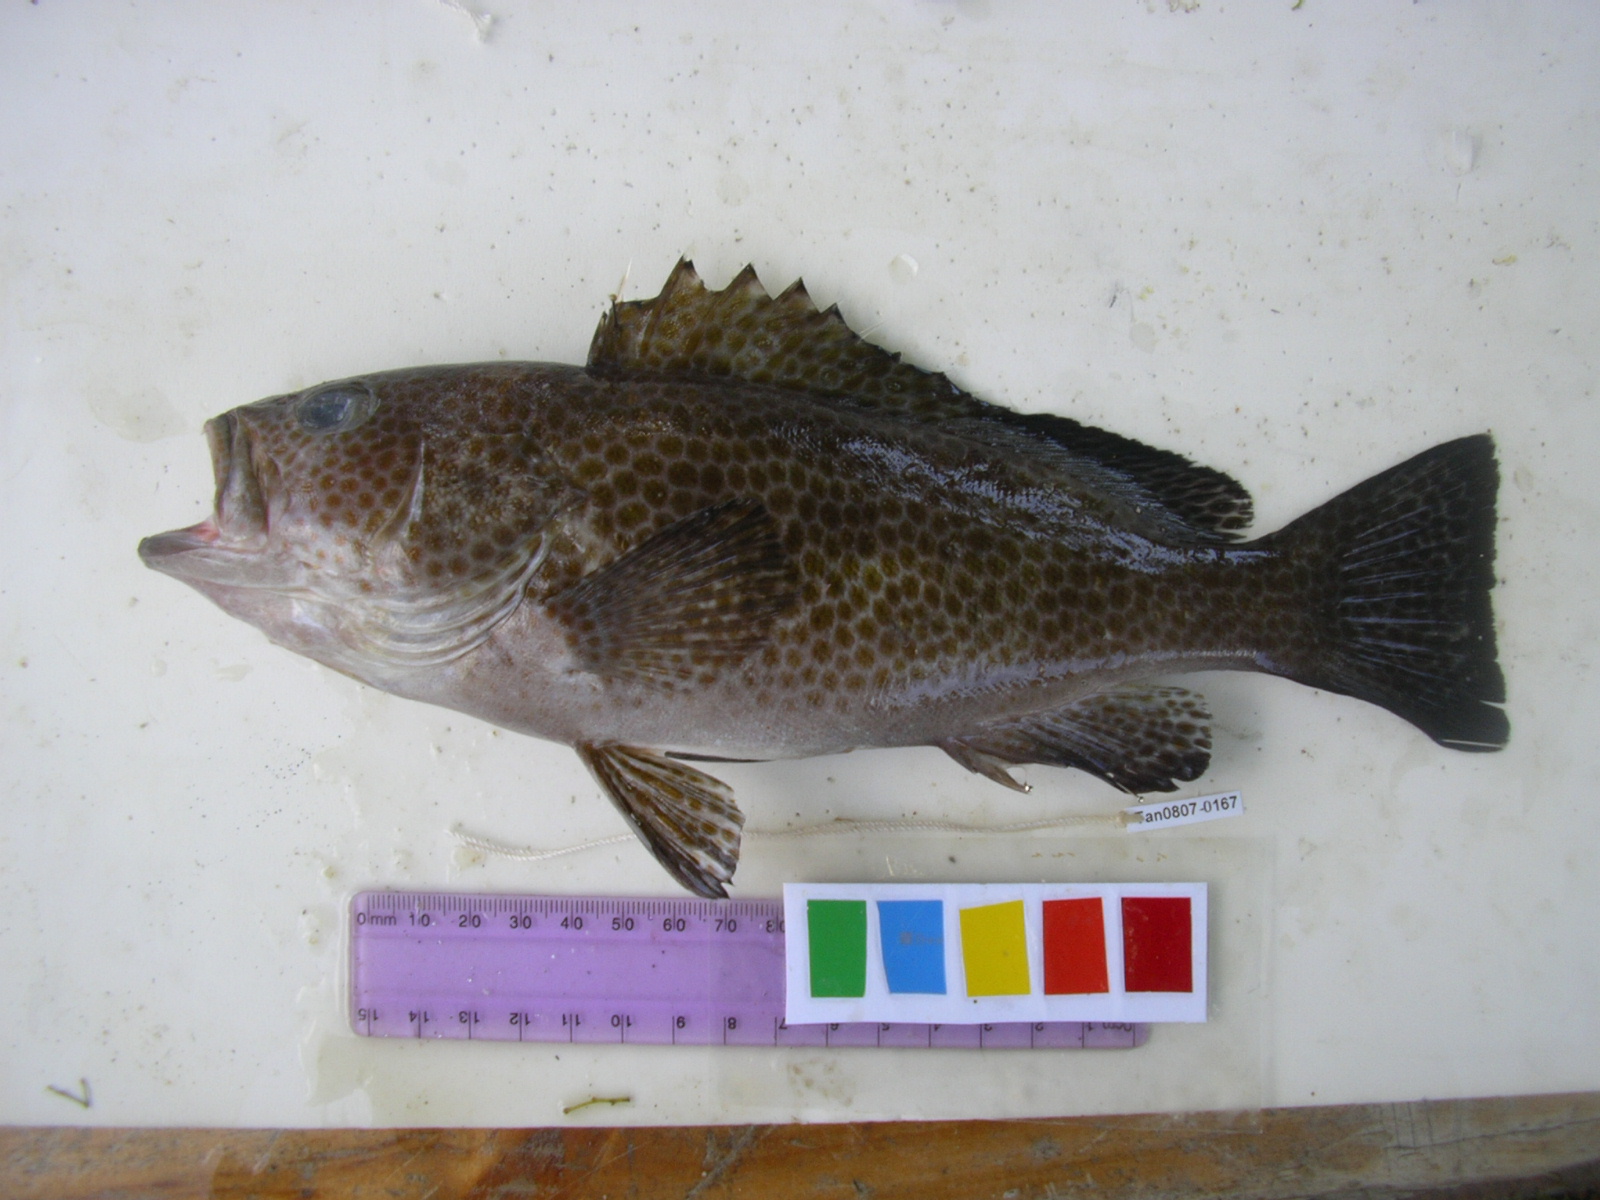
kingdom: Animalia
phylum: Chordata
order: Perciformes
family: Serranidae
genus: Epinephelus
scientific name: Epinephelus areolatus
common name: Areolate grouper
